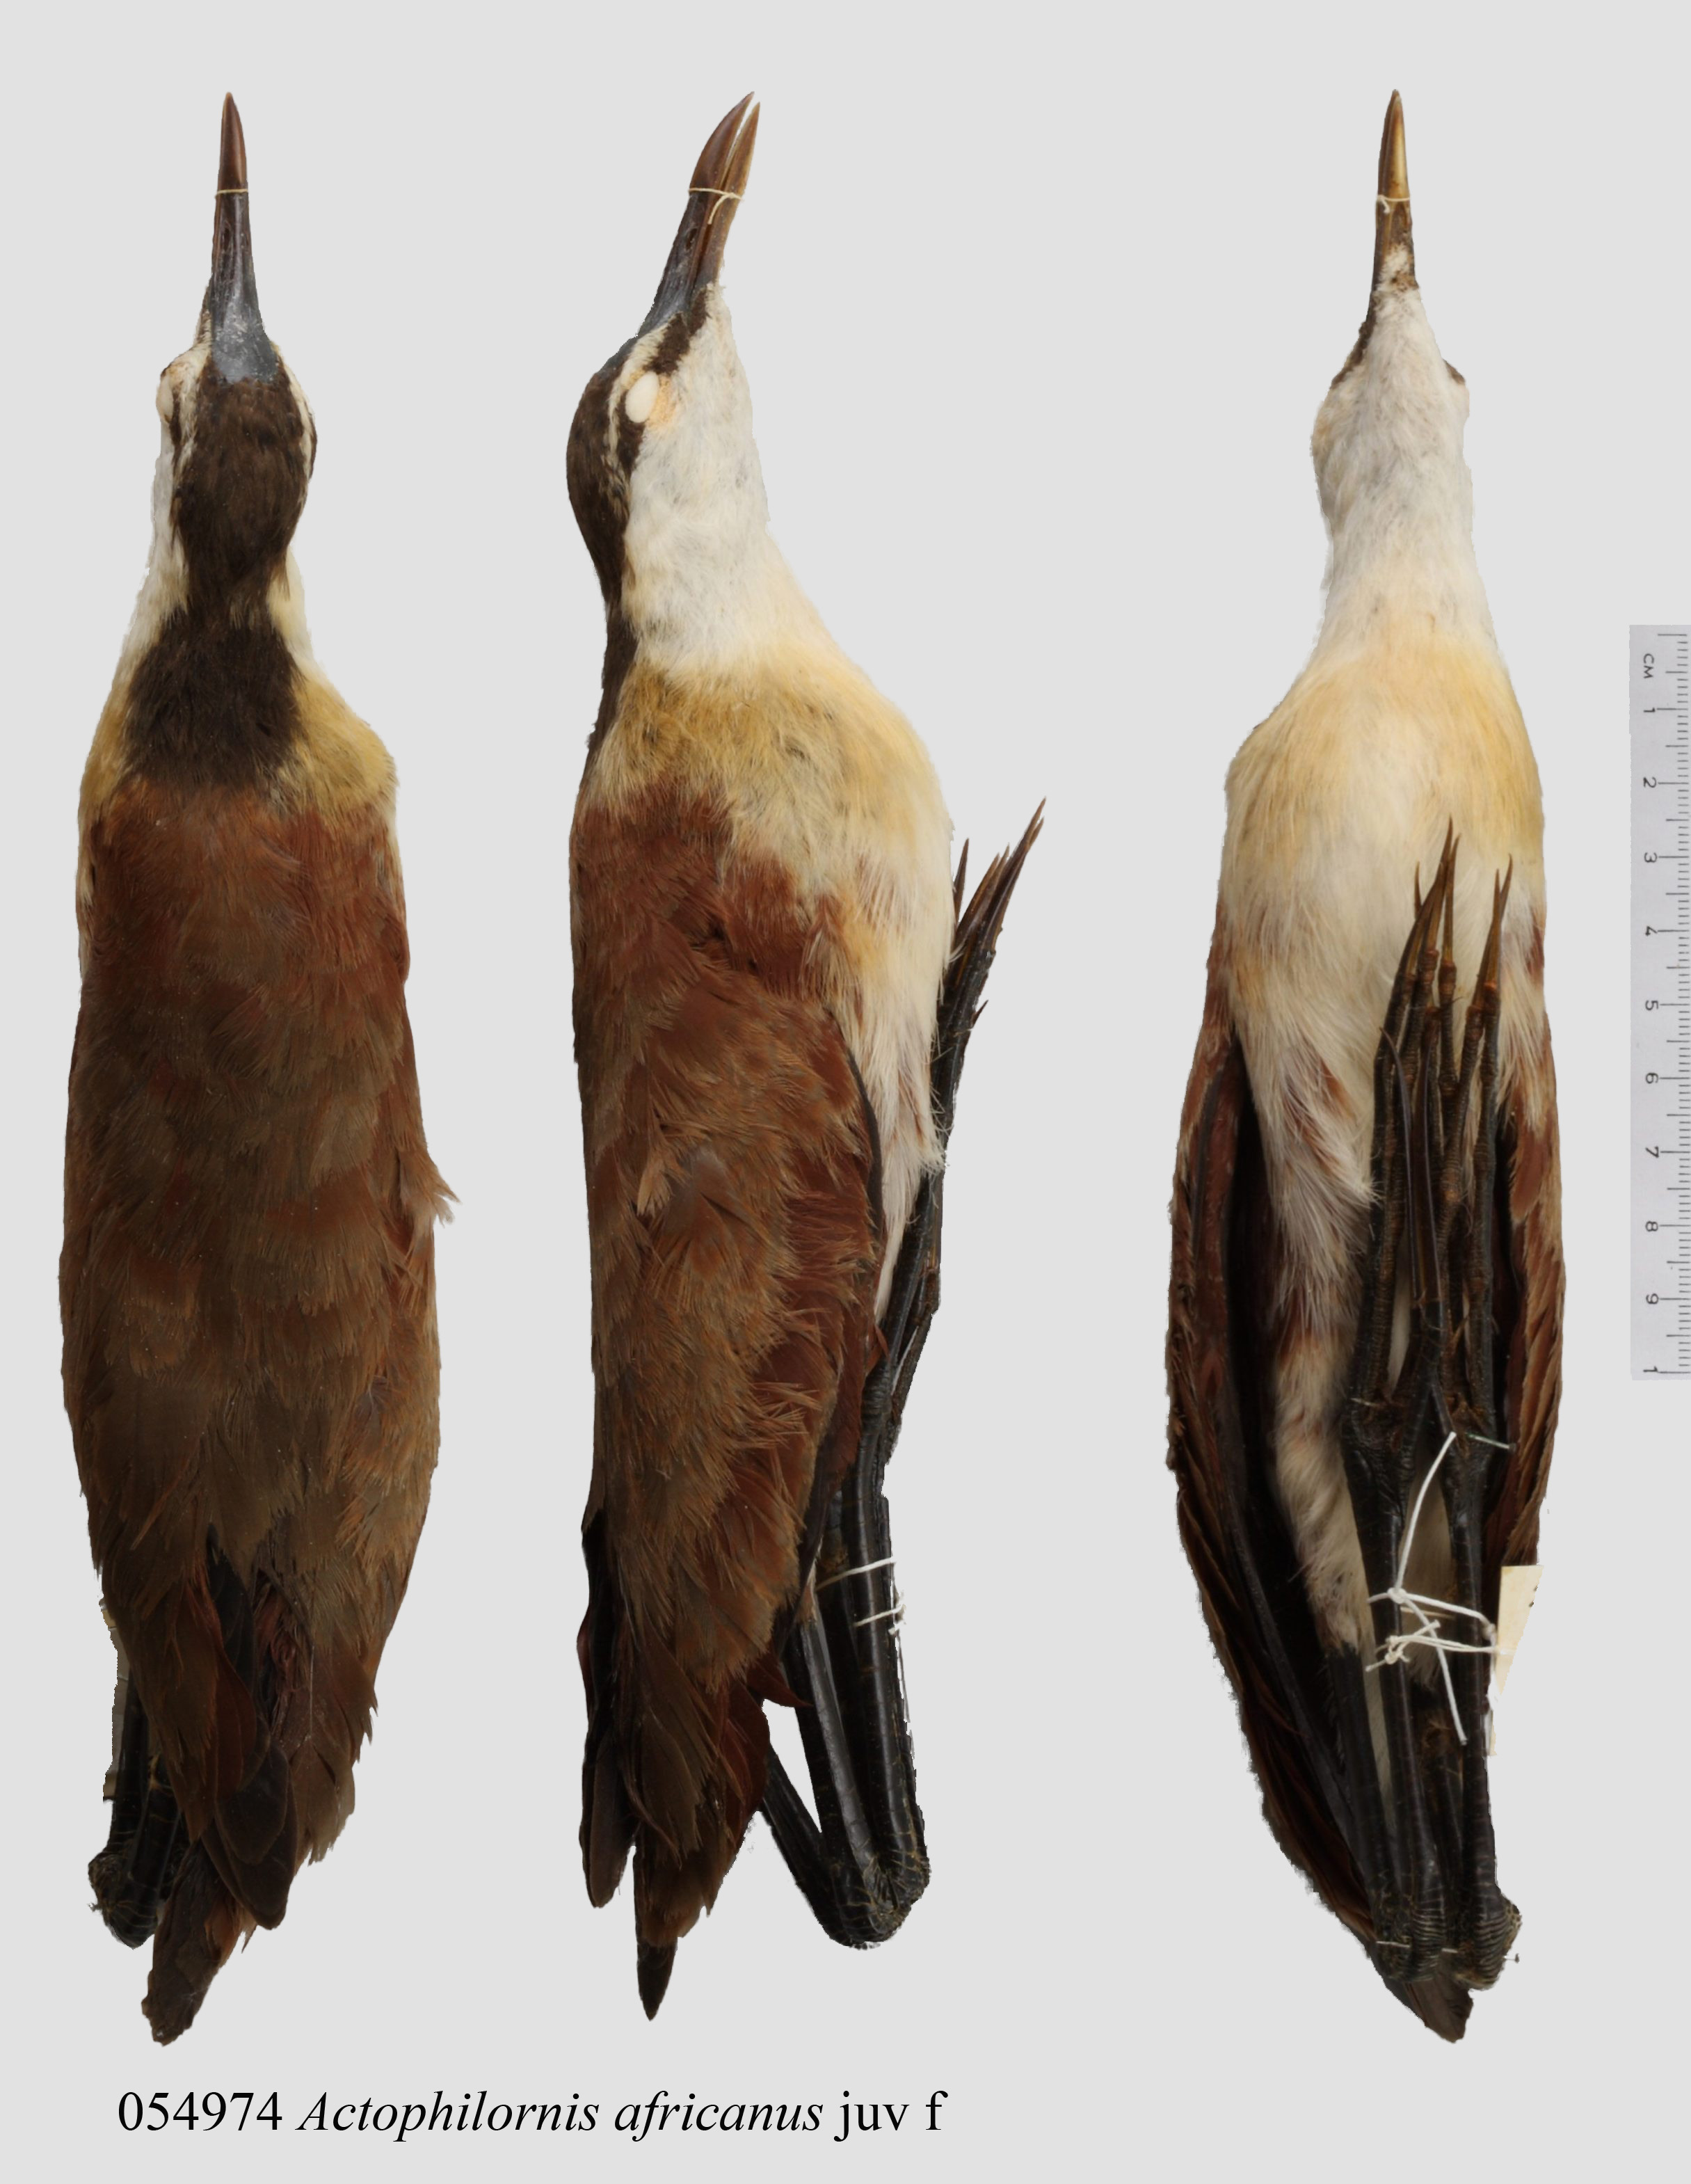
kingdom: Animalia
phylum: Chordata
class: Aves
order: Charadriiformes
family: Jacanidae
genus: Actophilornis
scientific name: Actophilornis africanus
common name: African jacana
